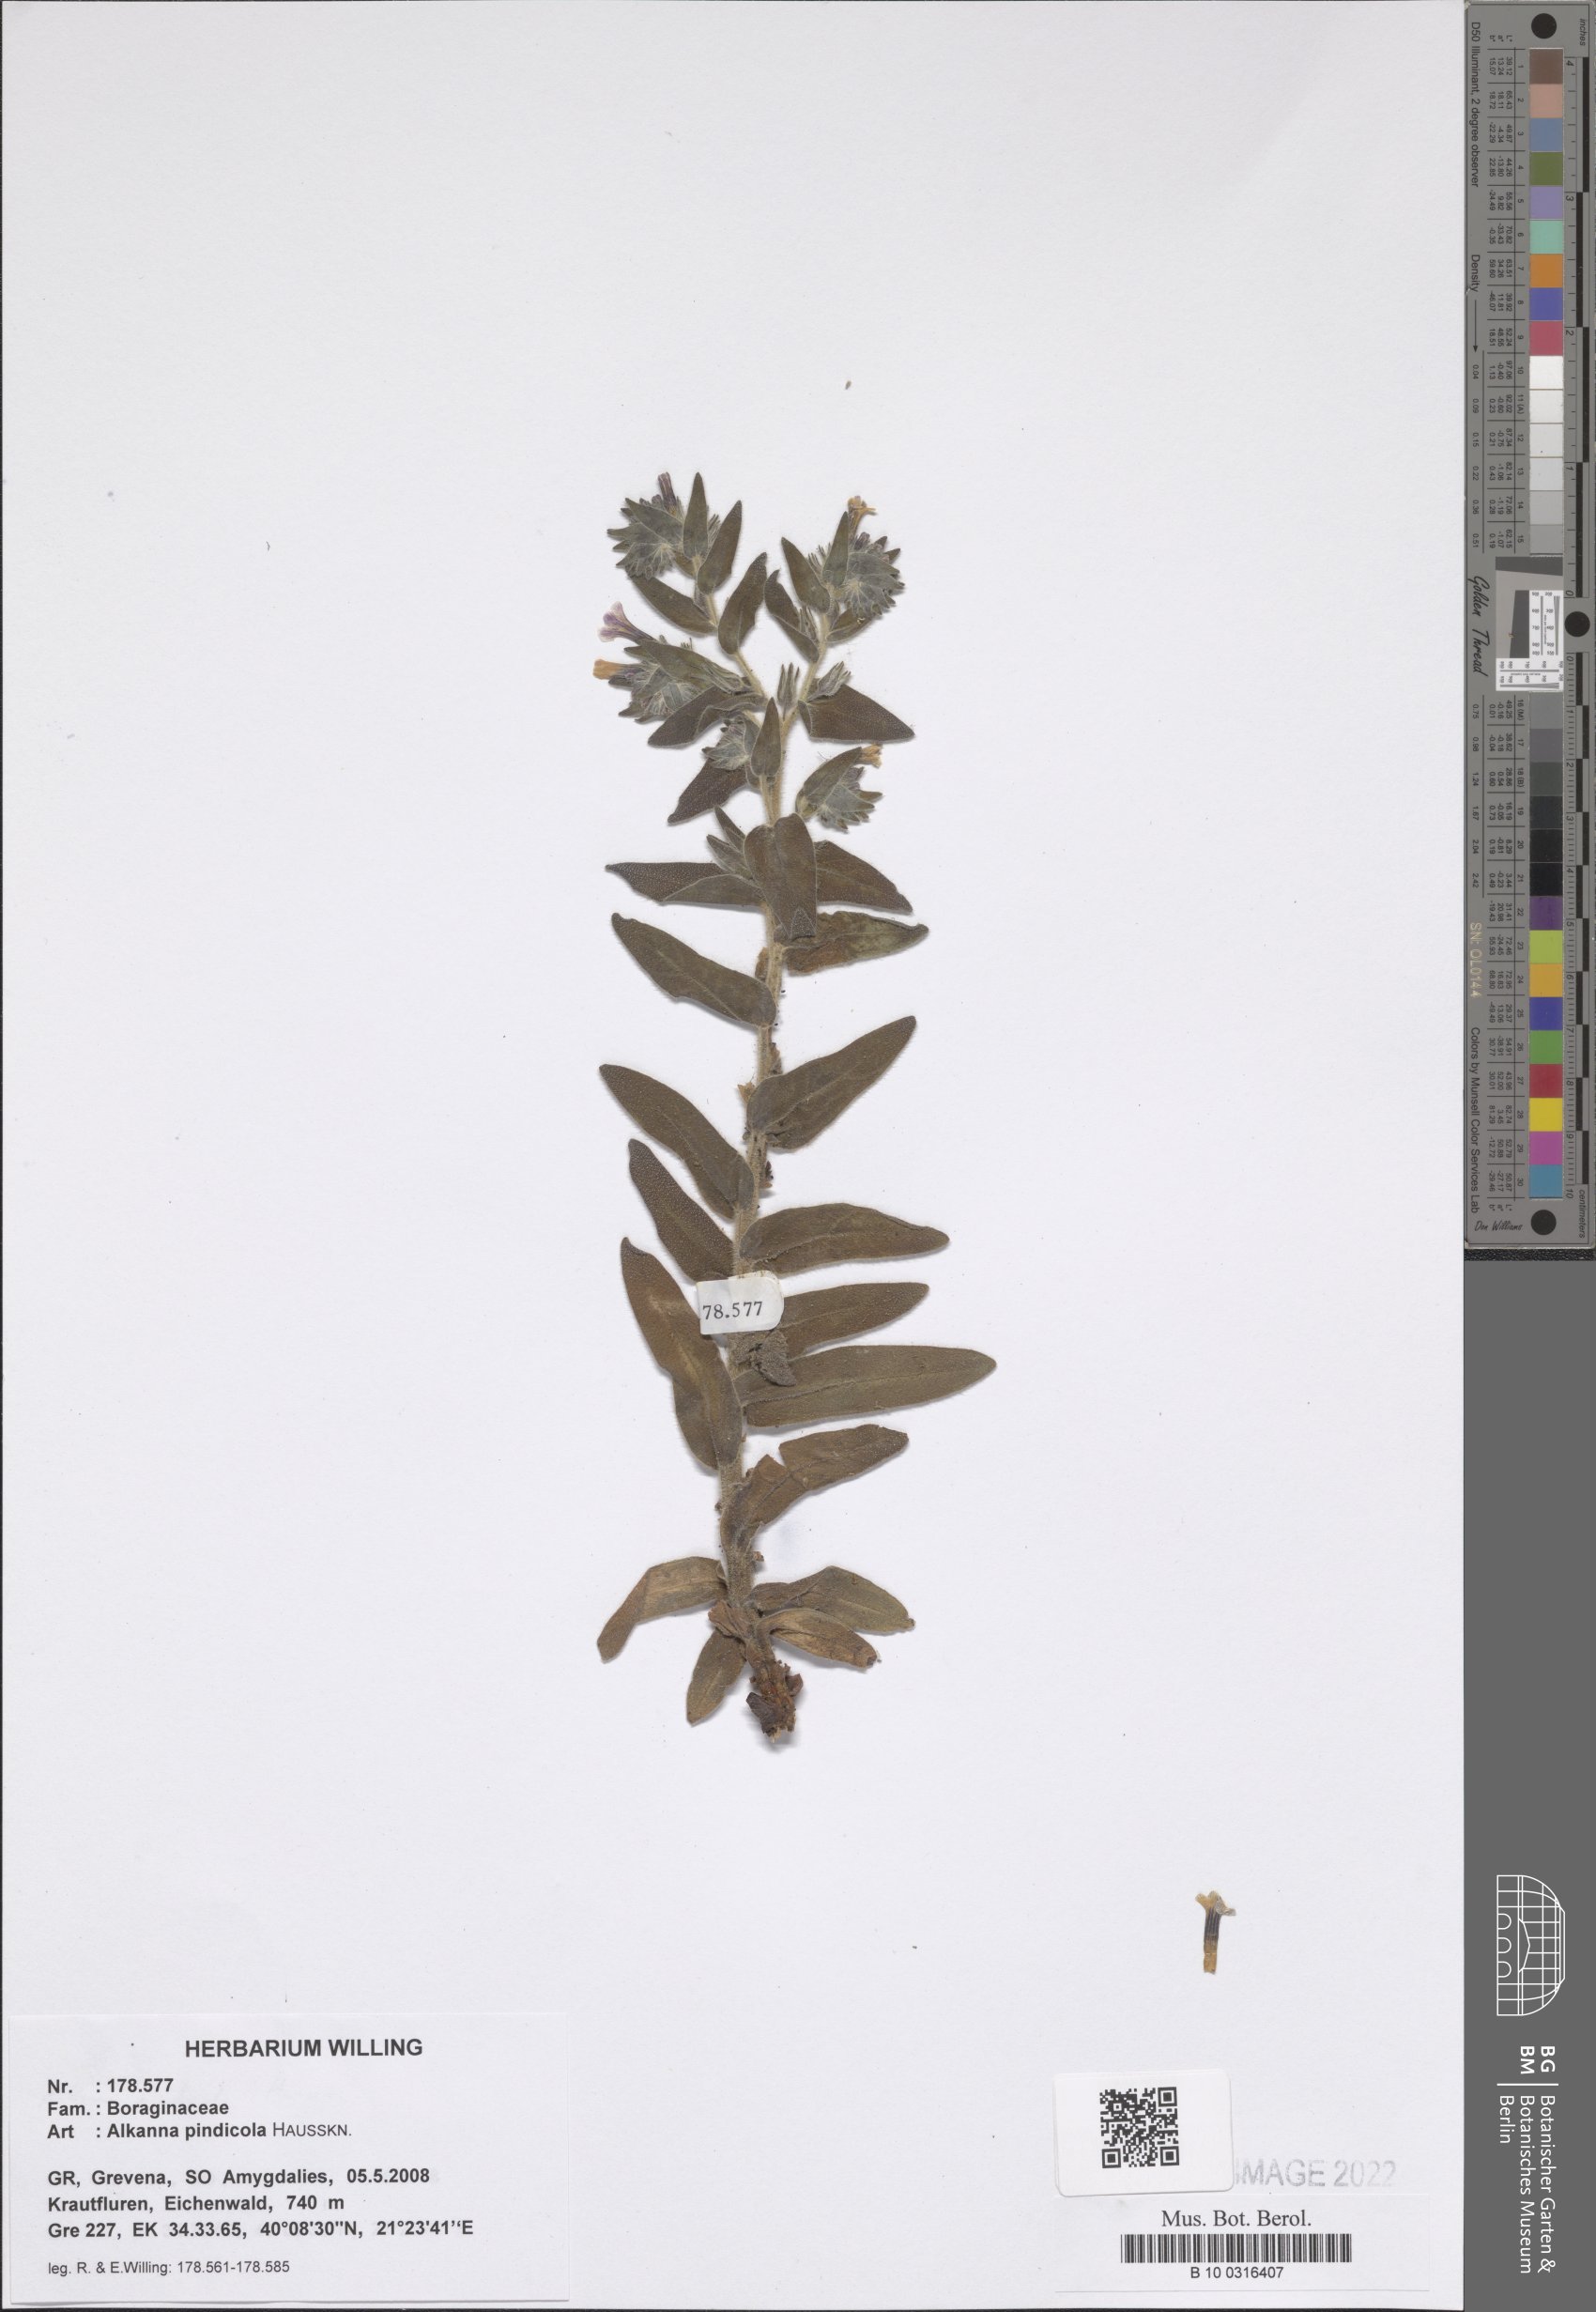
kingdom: Plantae
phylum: Tracheophyta
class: Magnoliopsida
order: Boraginales
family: Boraginaceae
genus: Alkanna
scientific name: Alkanna pindicola
